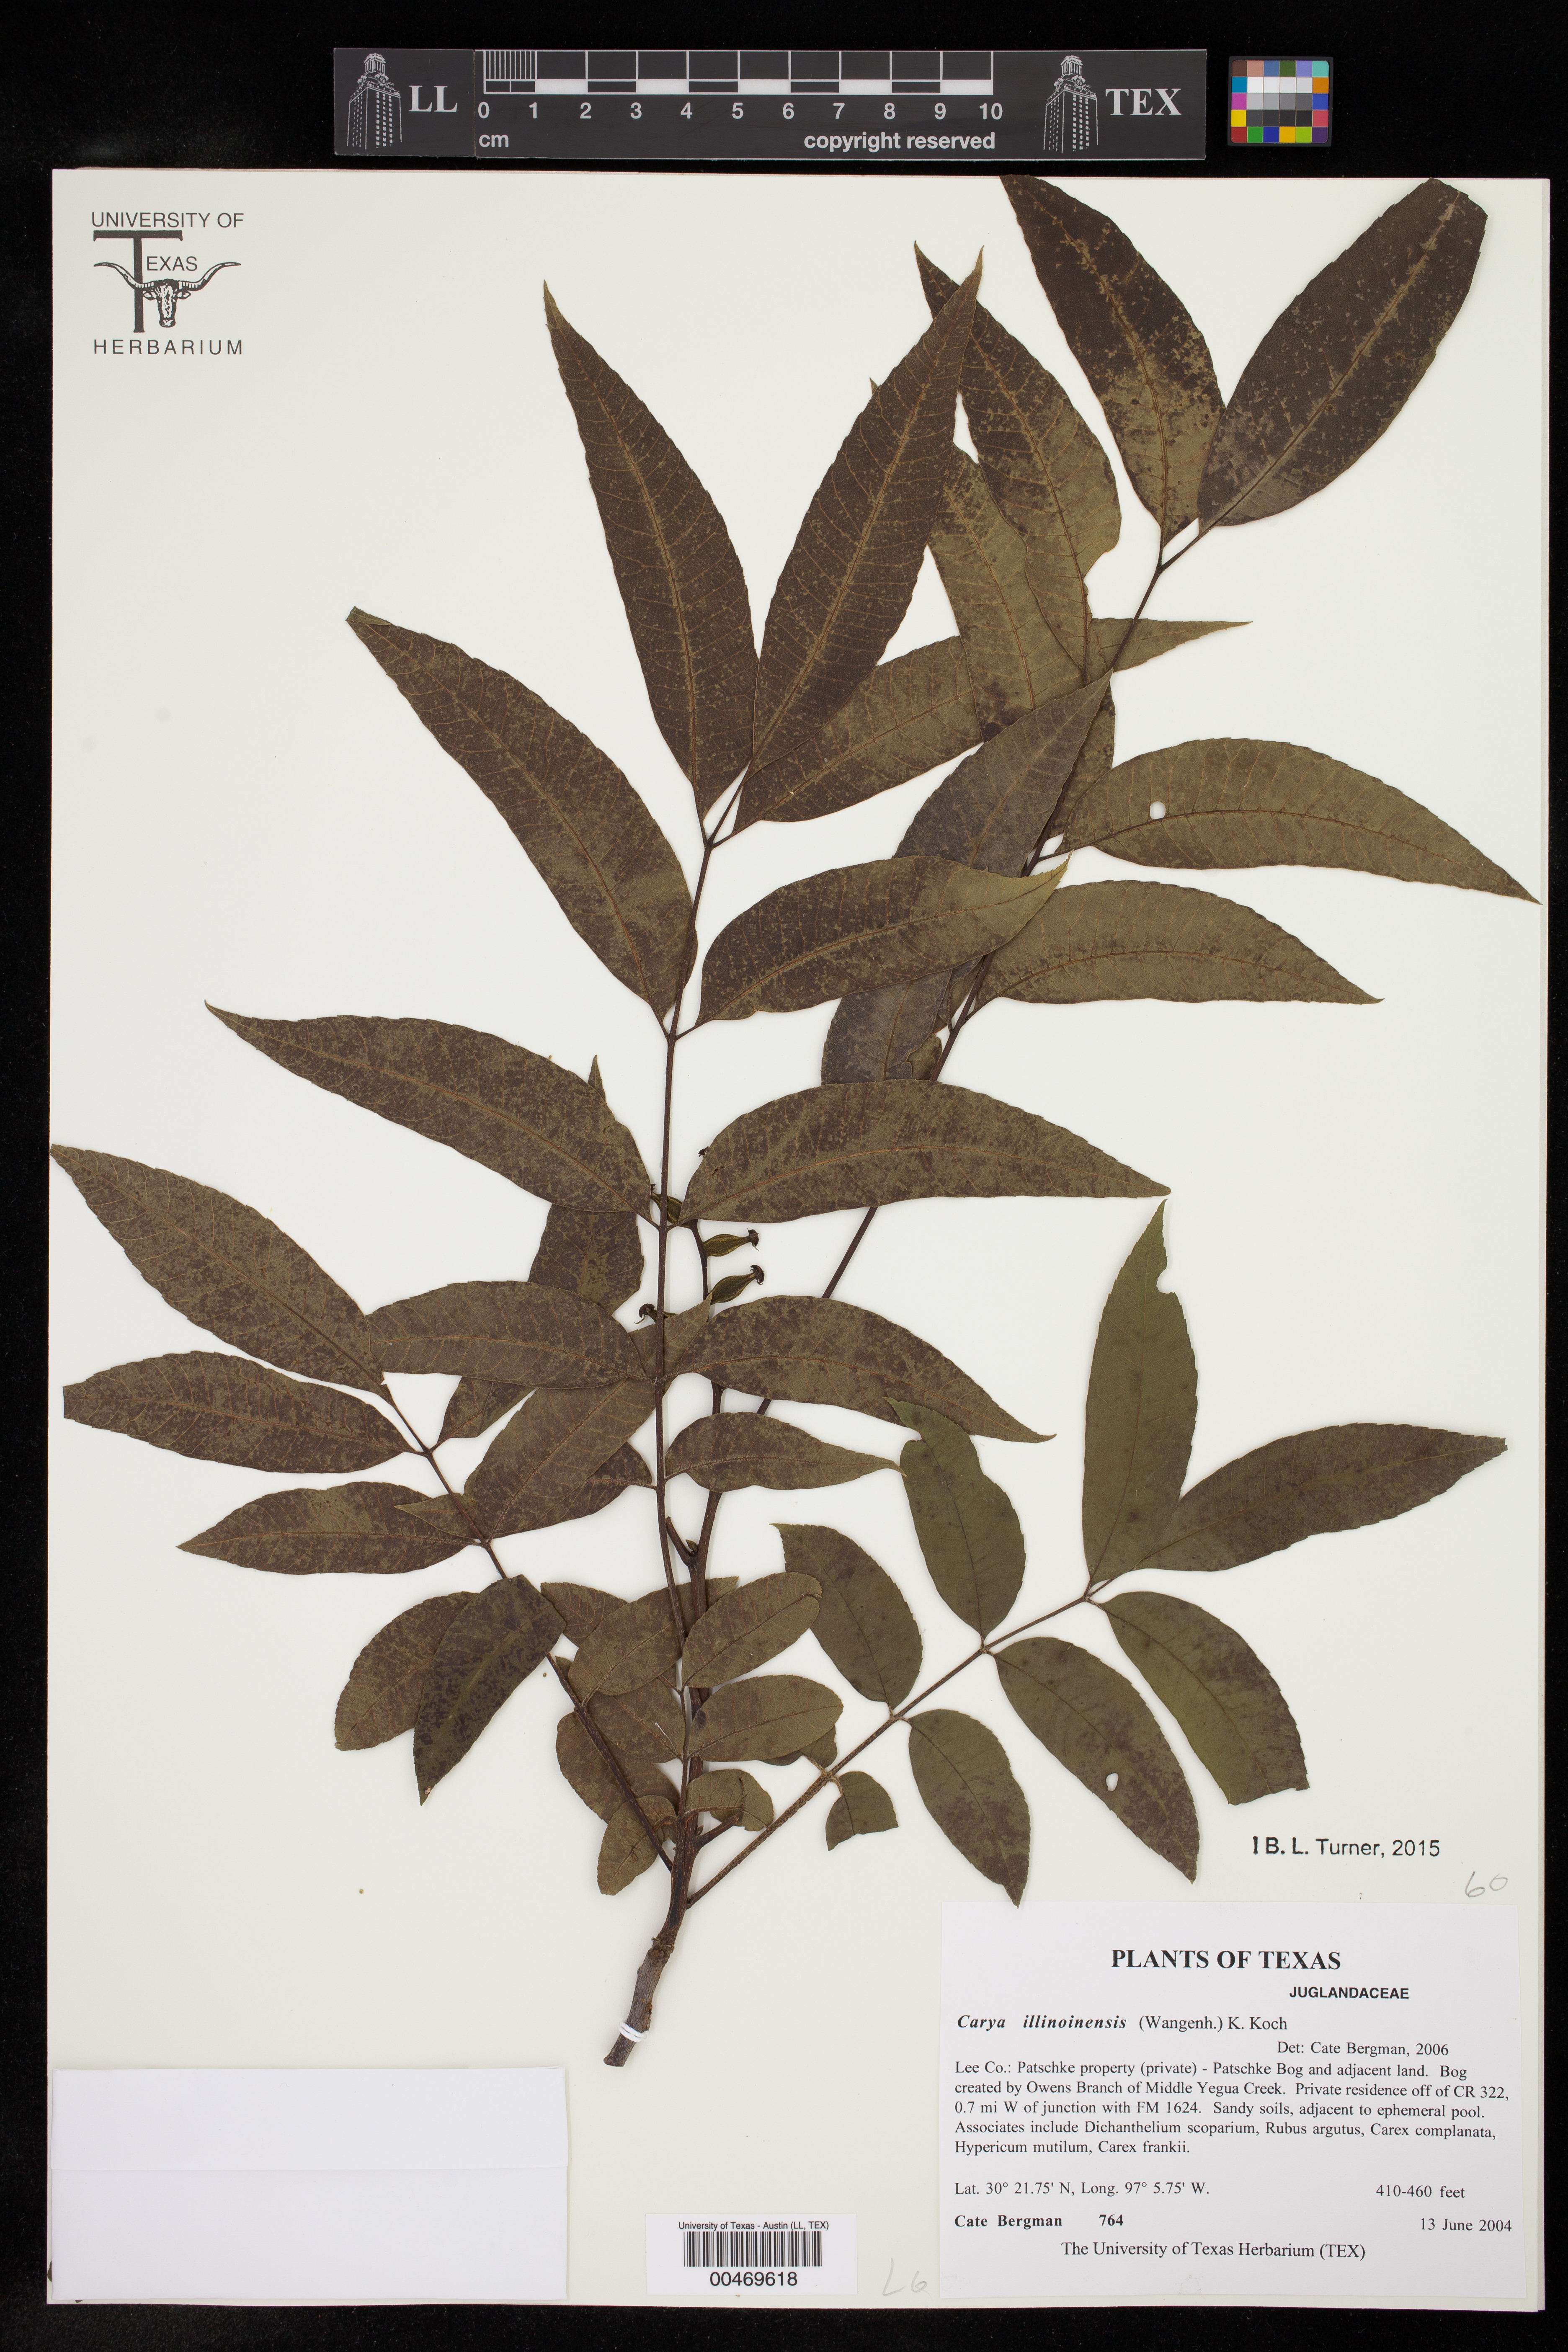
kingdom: Plantae
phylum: Tracheophyta
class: Magnoliopsida
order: Fagales
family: Juglandaceae
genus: Carya
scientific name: Carya illinoinensis
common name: Pecan
